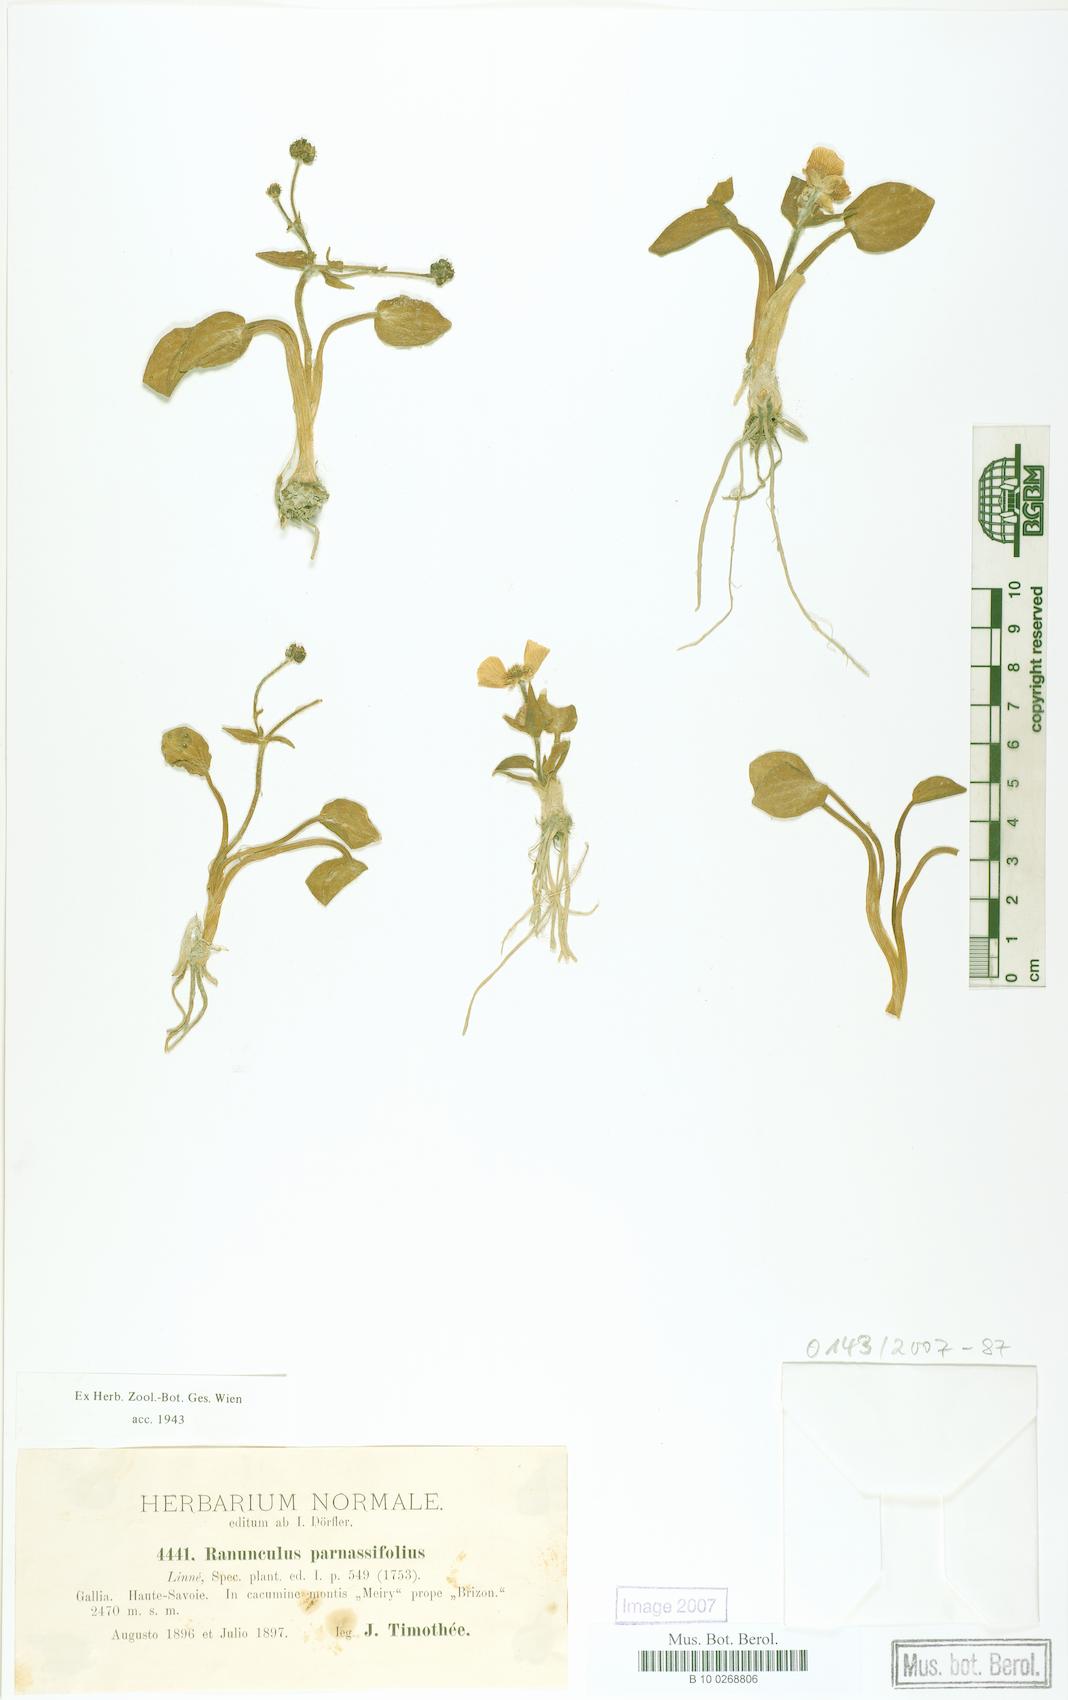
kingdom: Plantae
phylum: Tracheophyta
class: Magnoliopsida
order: Ranunculales
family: Ranunculaceae
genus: Ranunculus
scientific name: Ranunculus parnassiifolius
